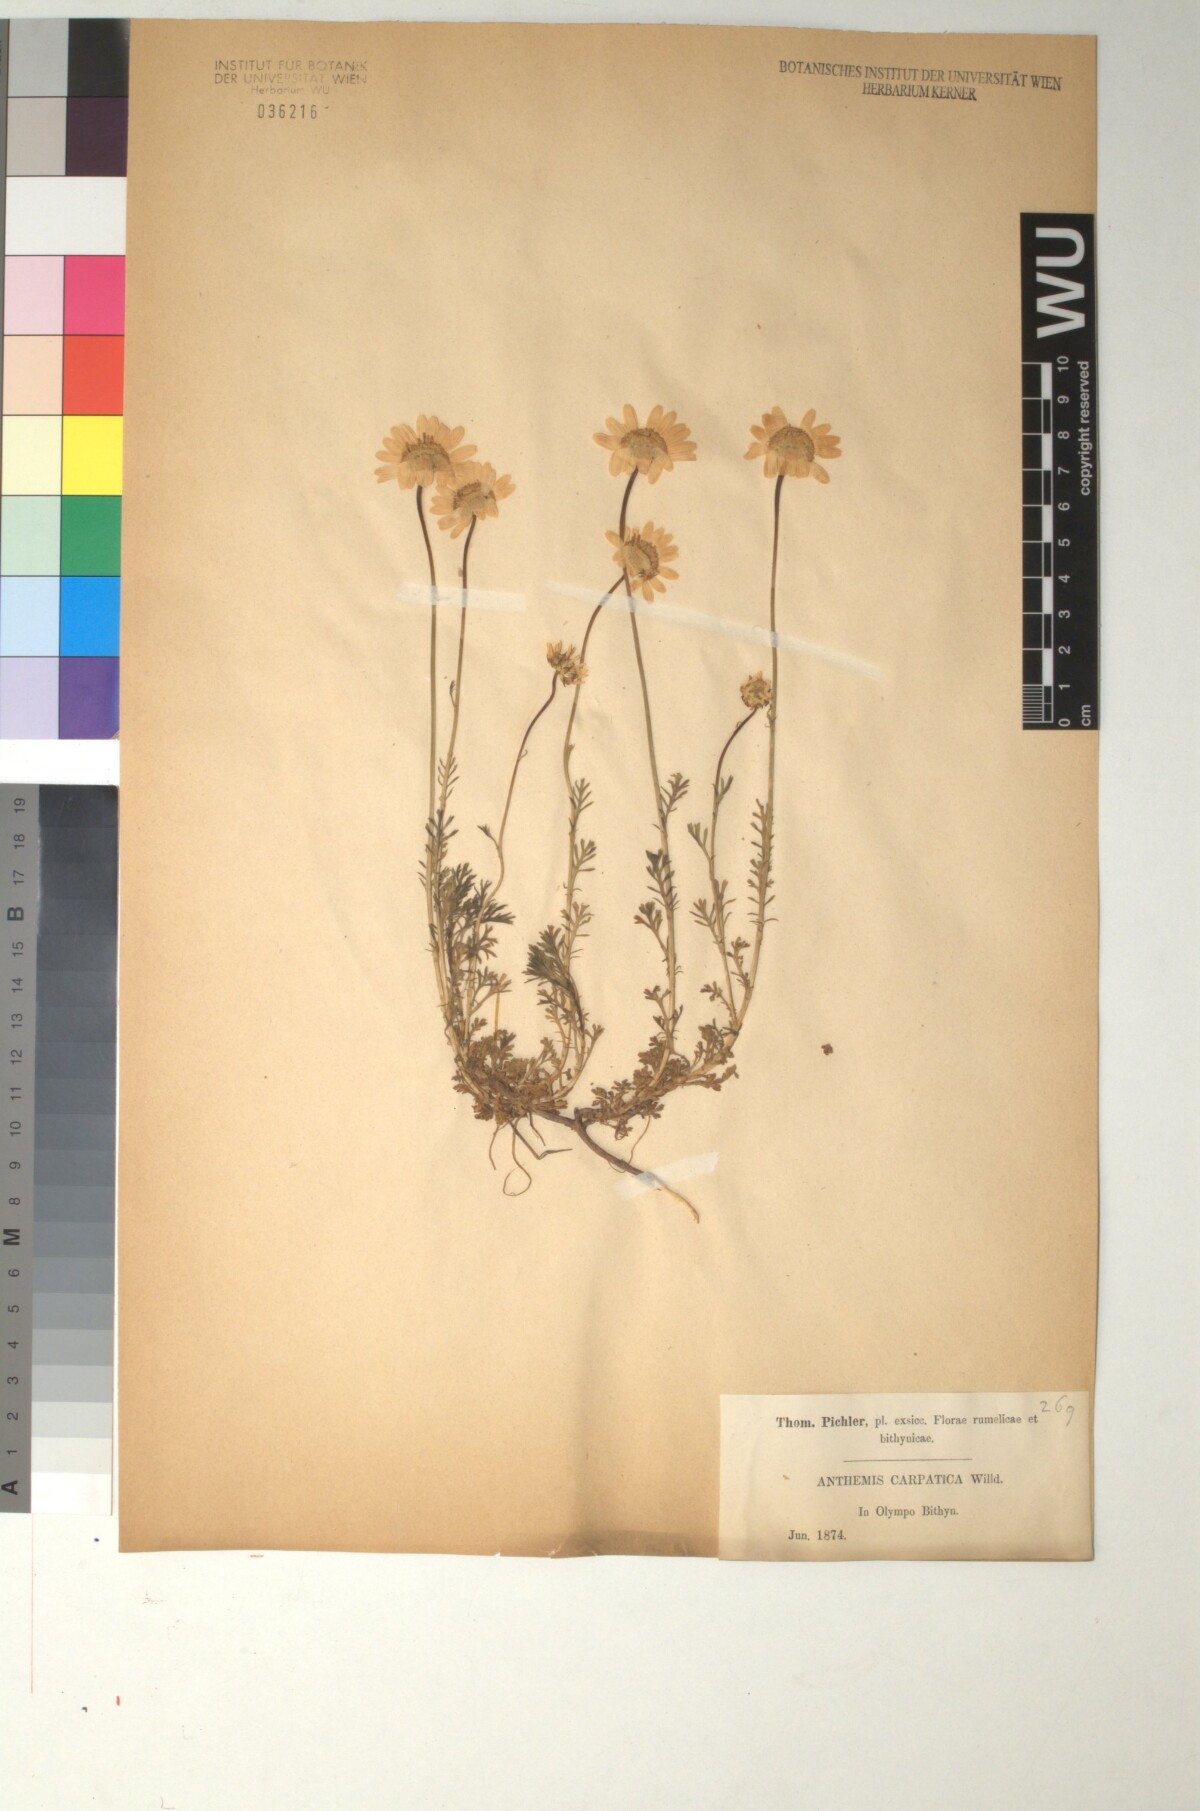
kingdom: Plantae
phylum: Tracheophyta
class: Magnoliopsida
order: Asterales
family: Asteraceae
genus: Anthemis
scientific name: Anthemis cretica
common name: Mountain dog-daisy
